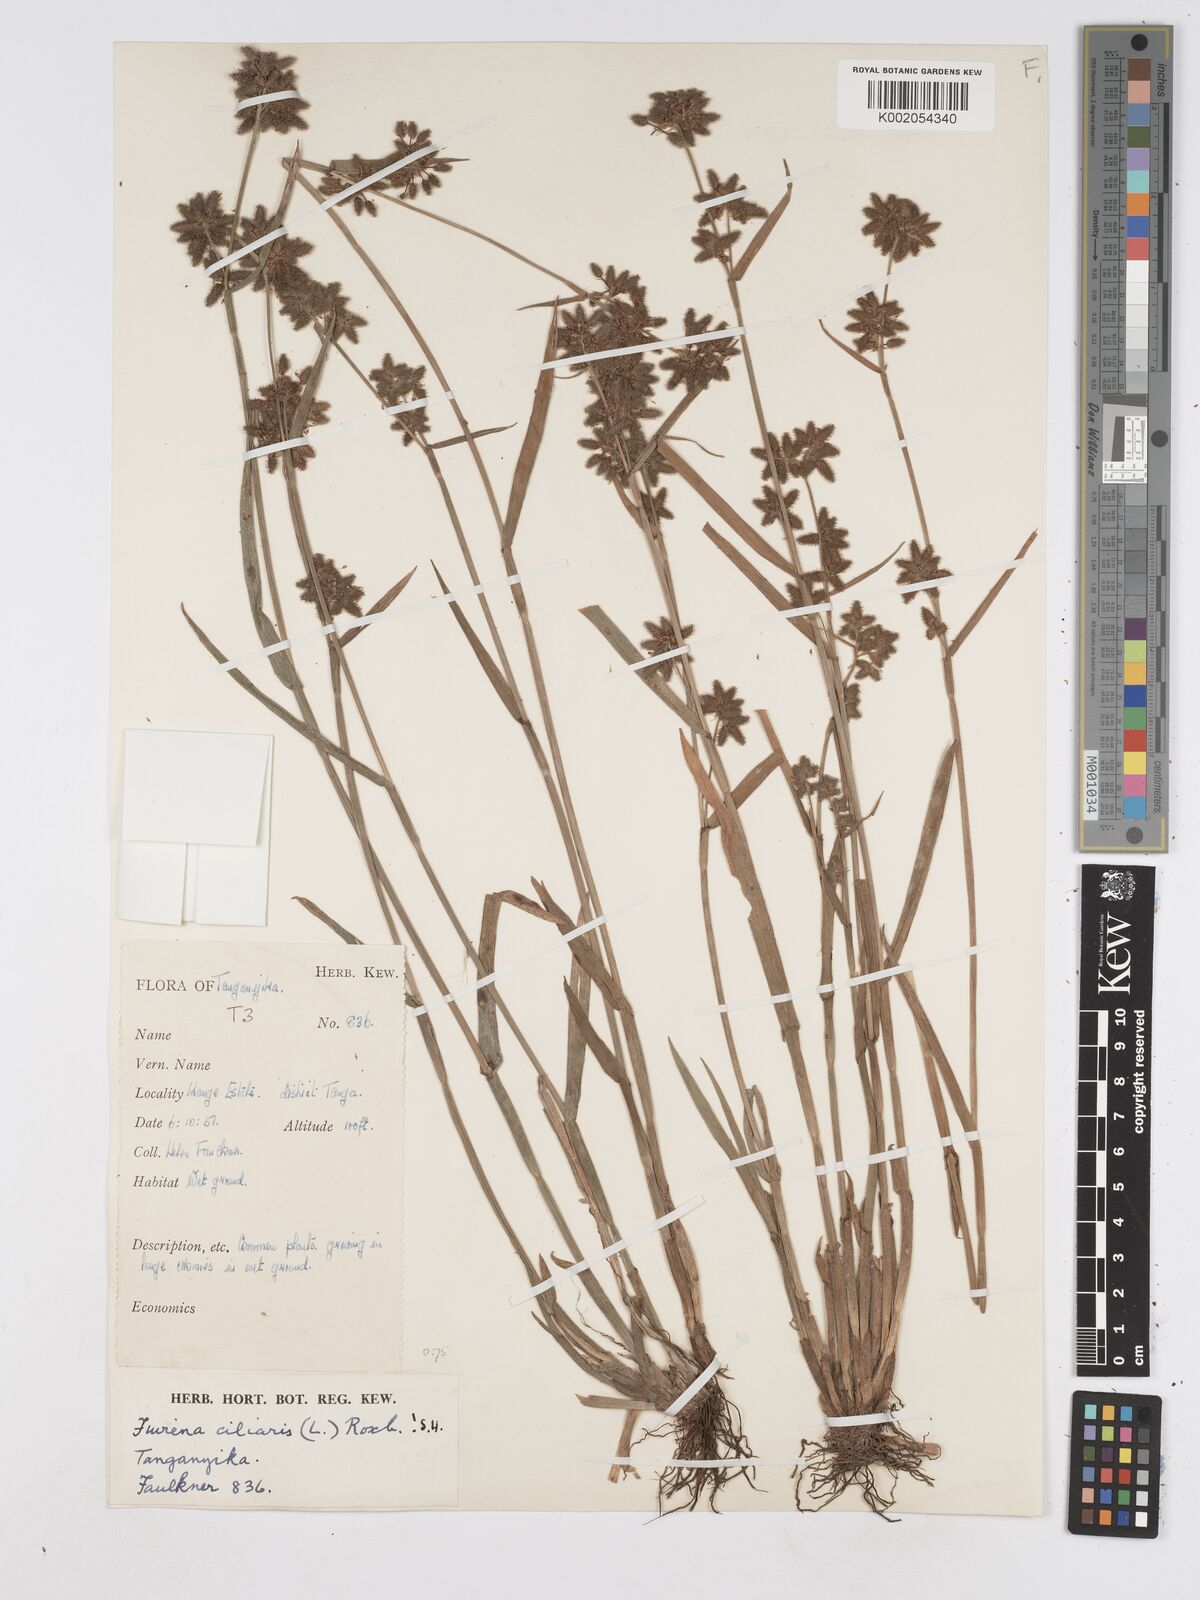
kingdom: Plantae
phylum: Tracheophyta
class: Liliopsida
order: Poales
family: Cyperaceae
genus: Fuirena
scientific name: Fuirena ciliaris
